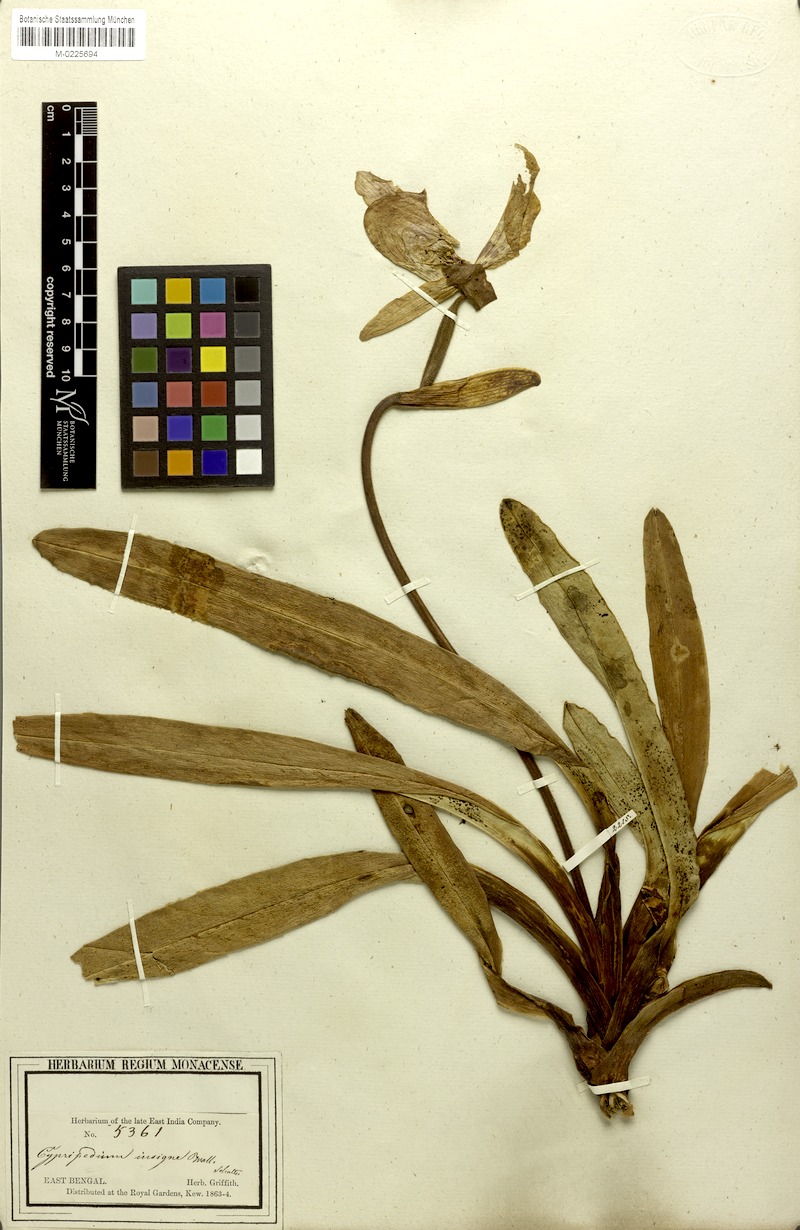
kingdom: Plantae
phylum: Tracheophyta
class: Liliopsida
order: Asparagales
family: Orchidaceae
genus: Paphiopedilum
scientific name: Paphiopedilum insigne
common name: Splendid paphiopedilum
